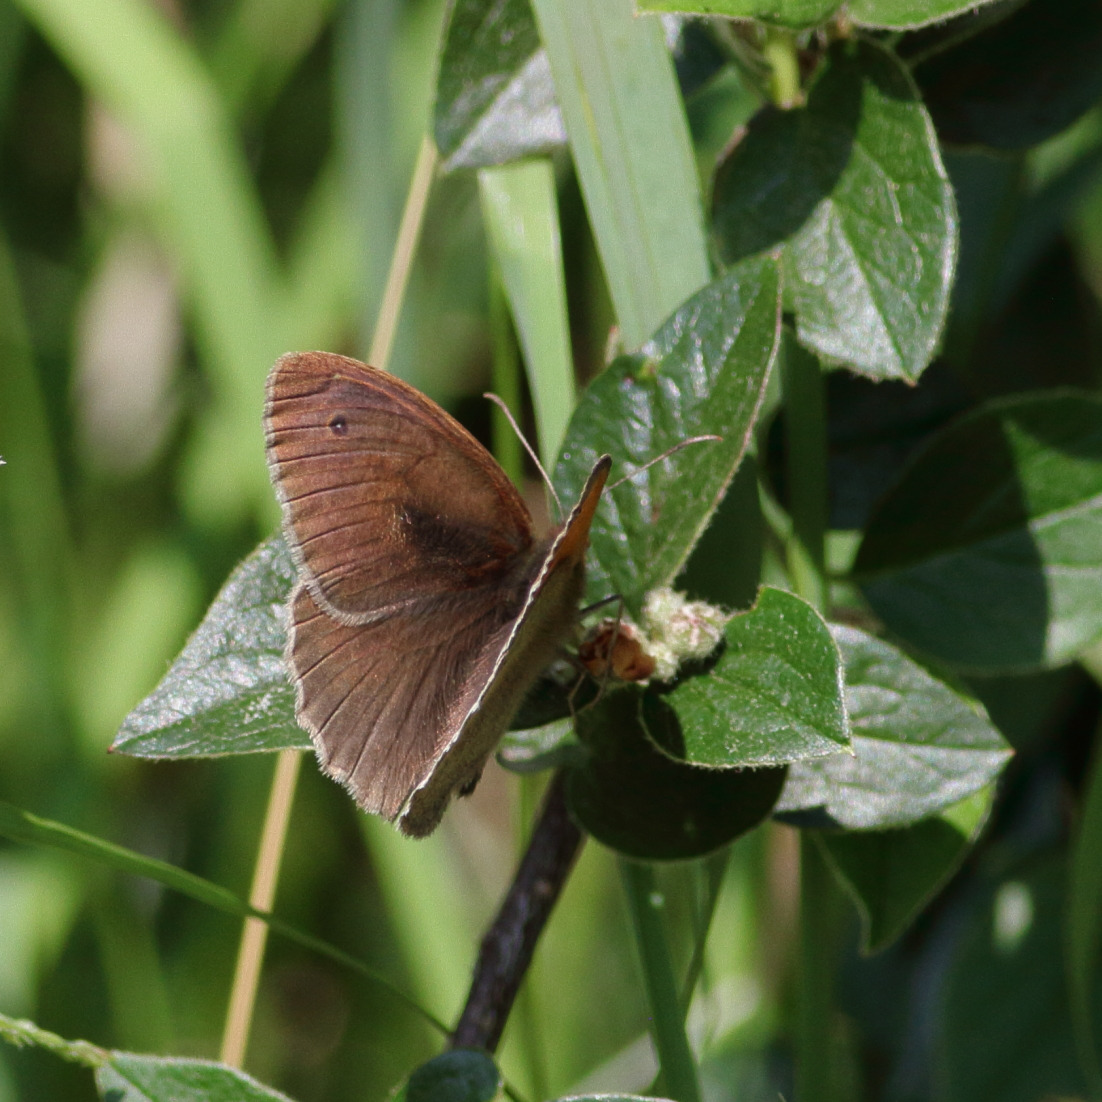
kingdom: Animalia
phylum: Arthropoda
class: Insecta
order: Lepidoptera
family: Nymphalidae
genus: Maniola
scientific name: Maniola jurtina
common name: Græsrandøje
